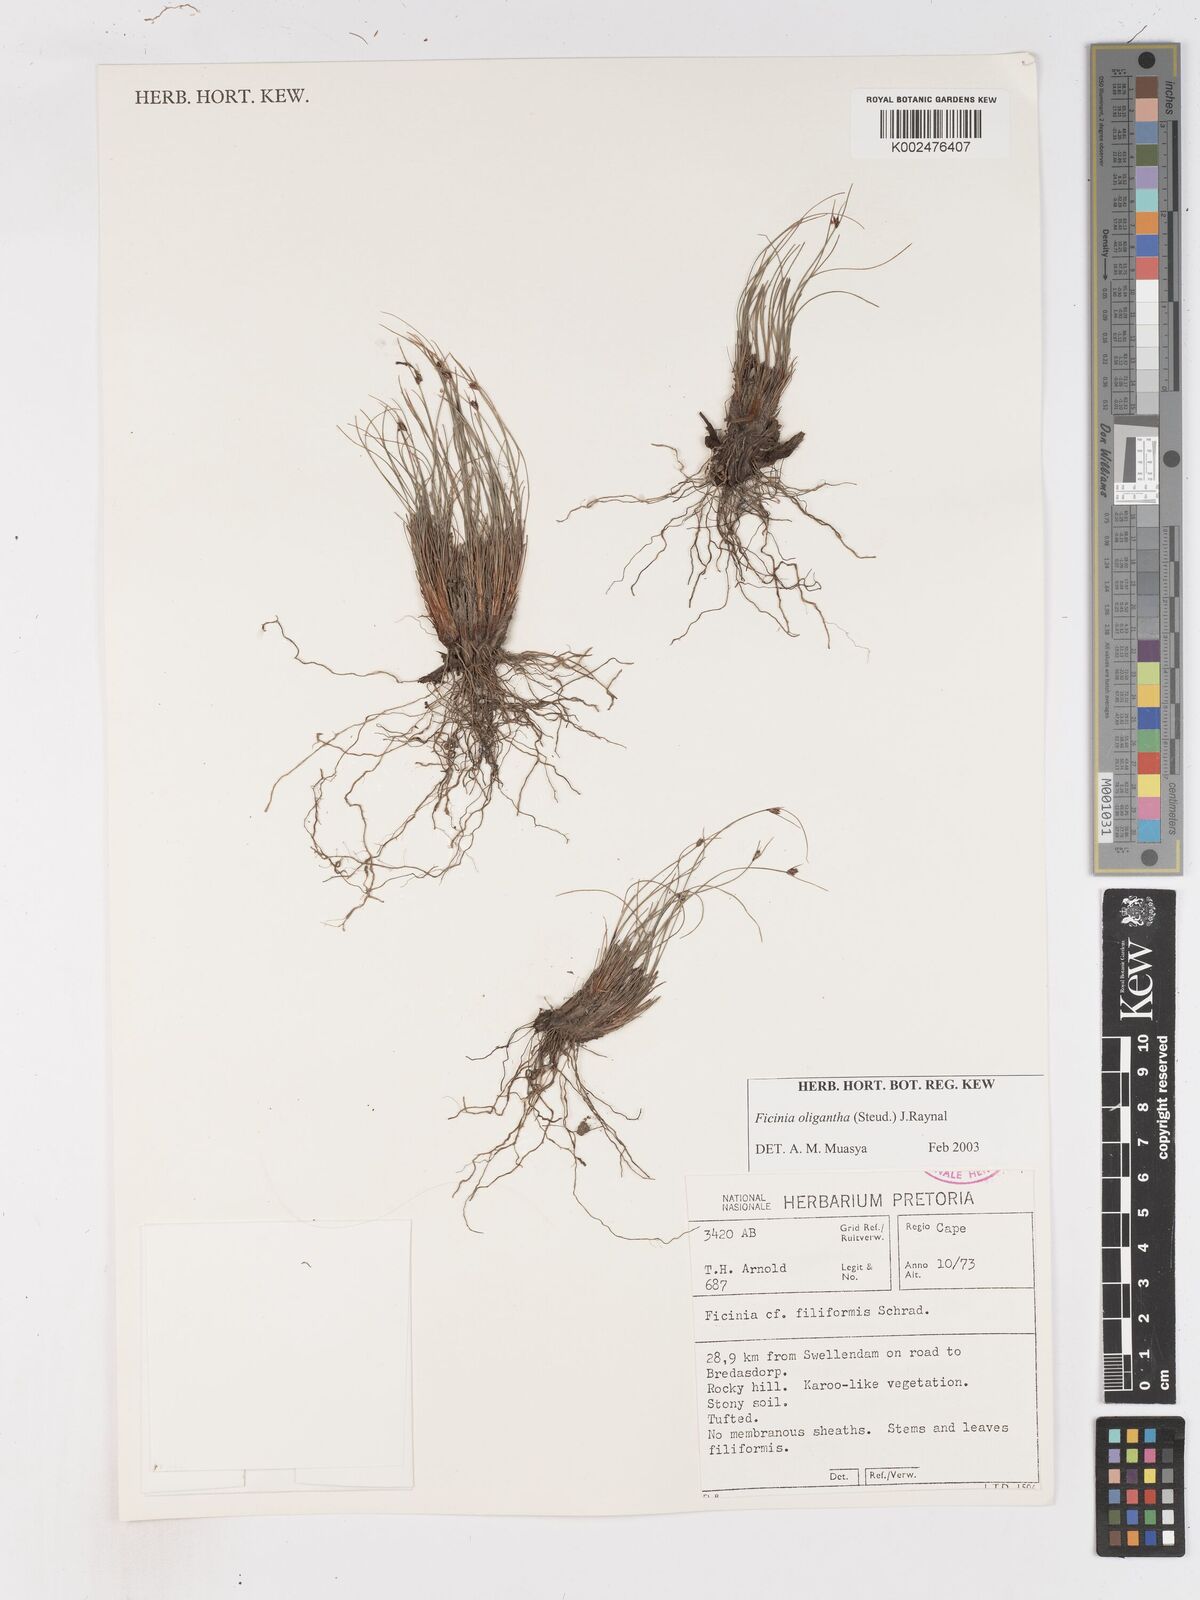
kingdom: Plantae
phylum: Tracheophyta
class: Liliopsida
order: Poales
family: Cyperaceae
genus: Ficinia
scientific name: Ficinia oligantha
